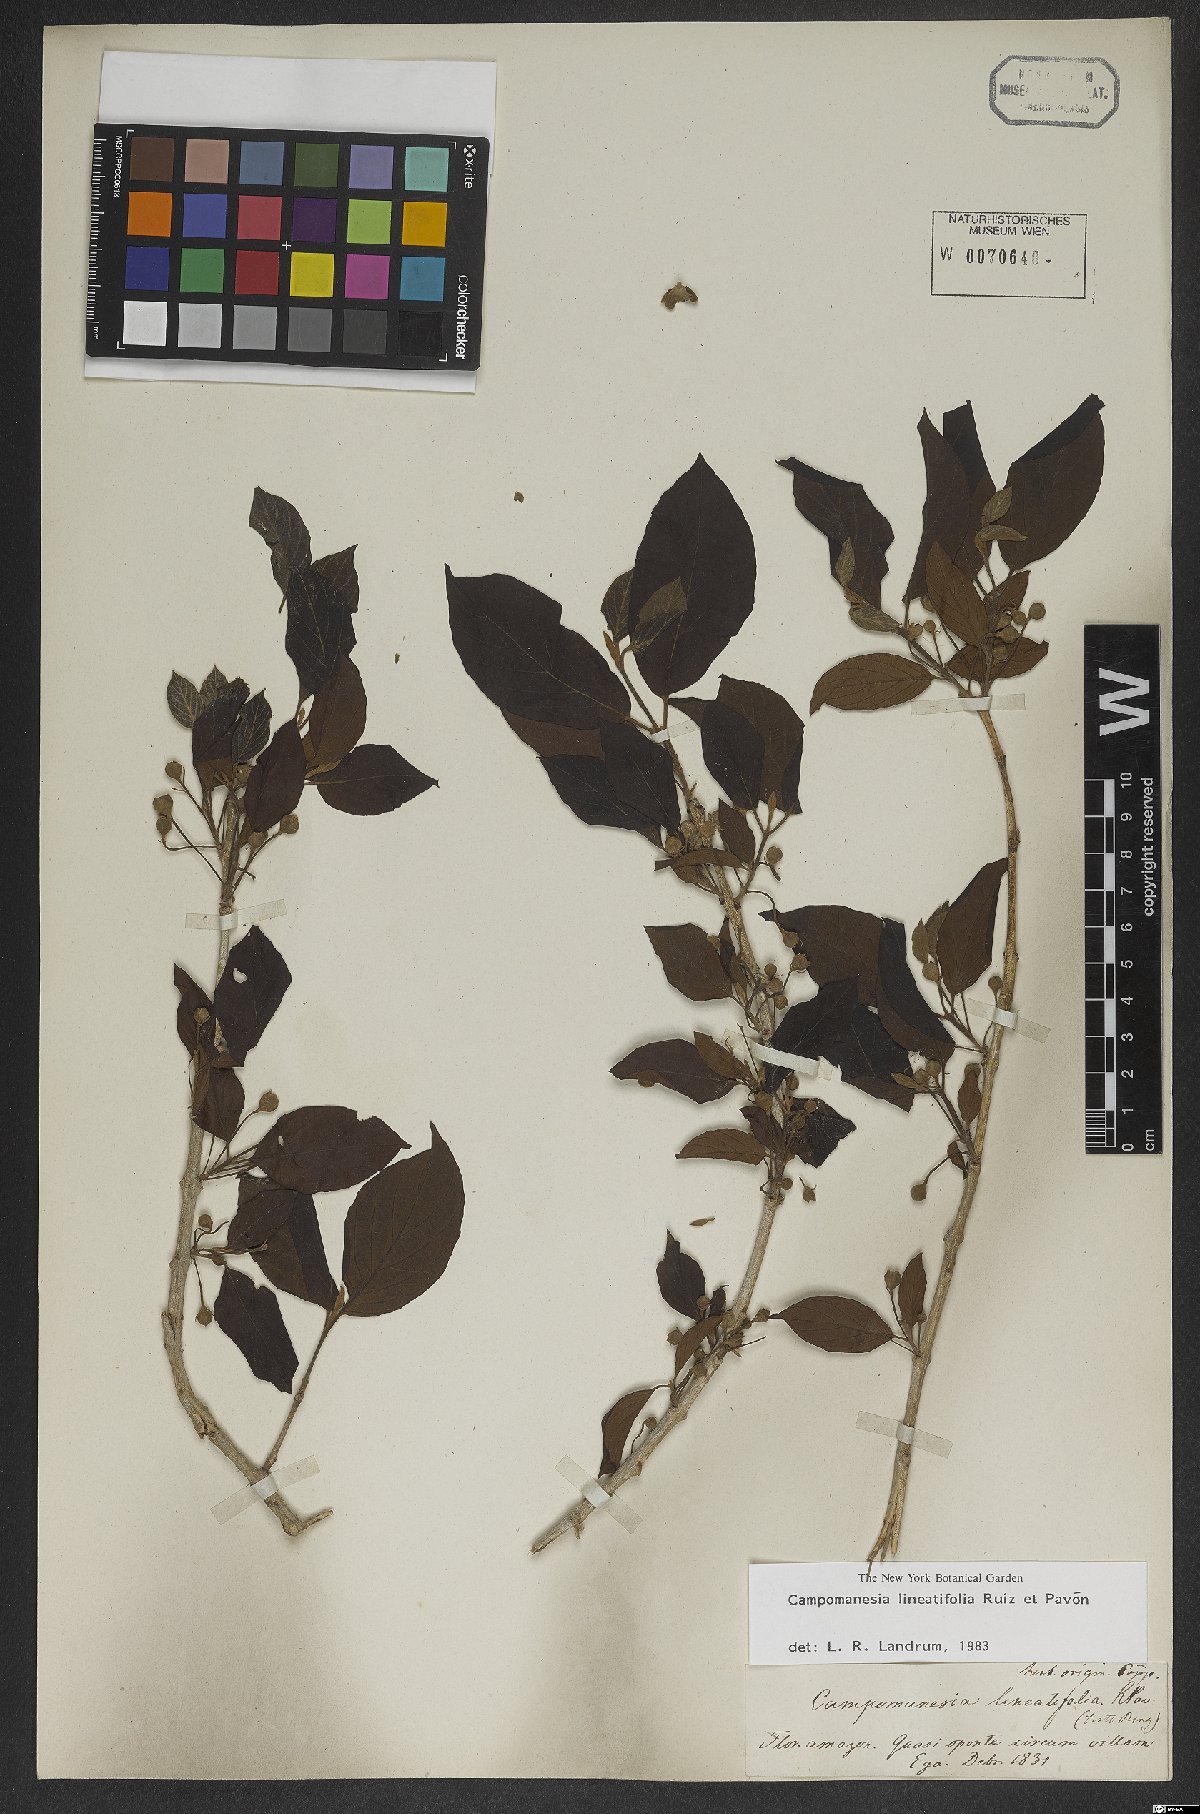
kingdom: Plantae
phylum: Tracheophyta
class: Magnoliopsida
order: Myrtales
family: Myrtaceae
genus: Campomanesia
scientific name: Campomanesia lineatifolia
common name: Perfume guava
